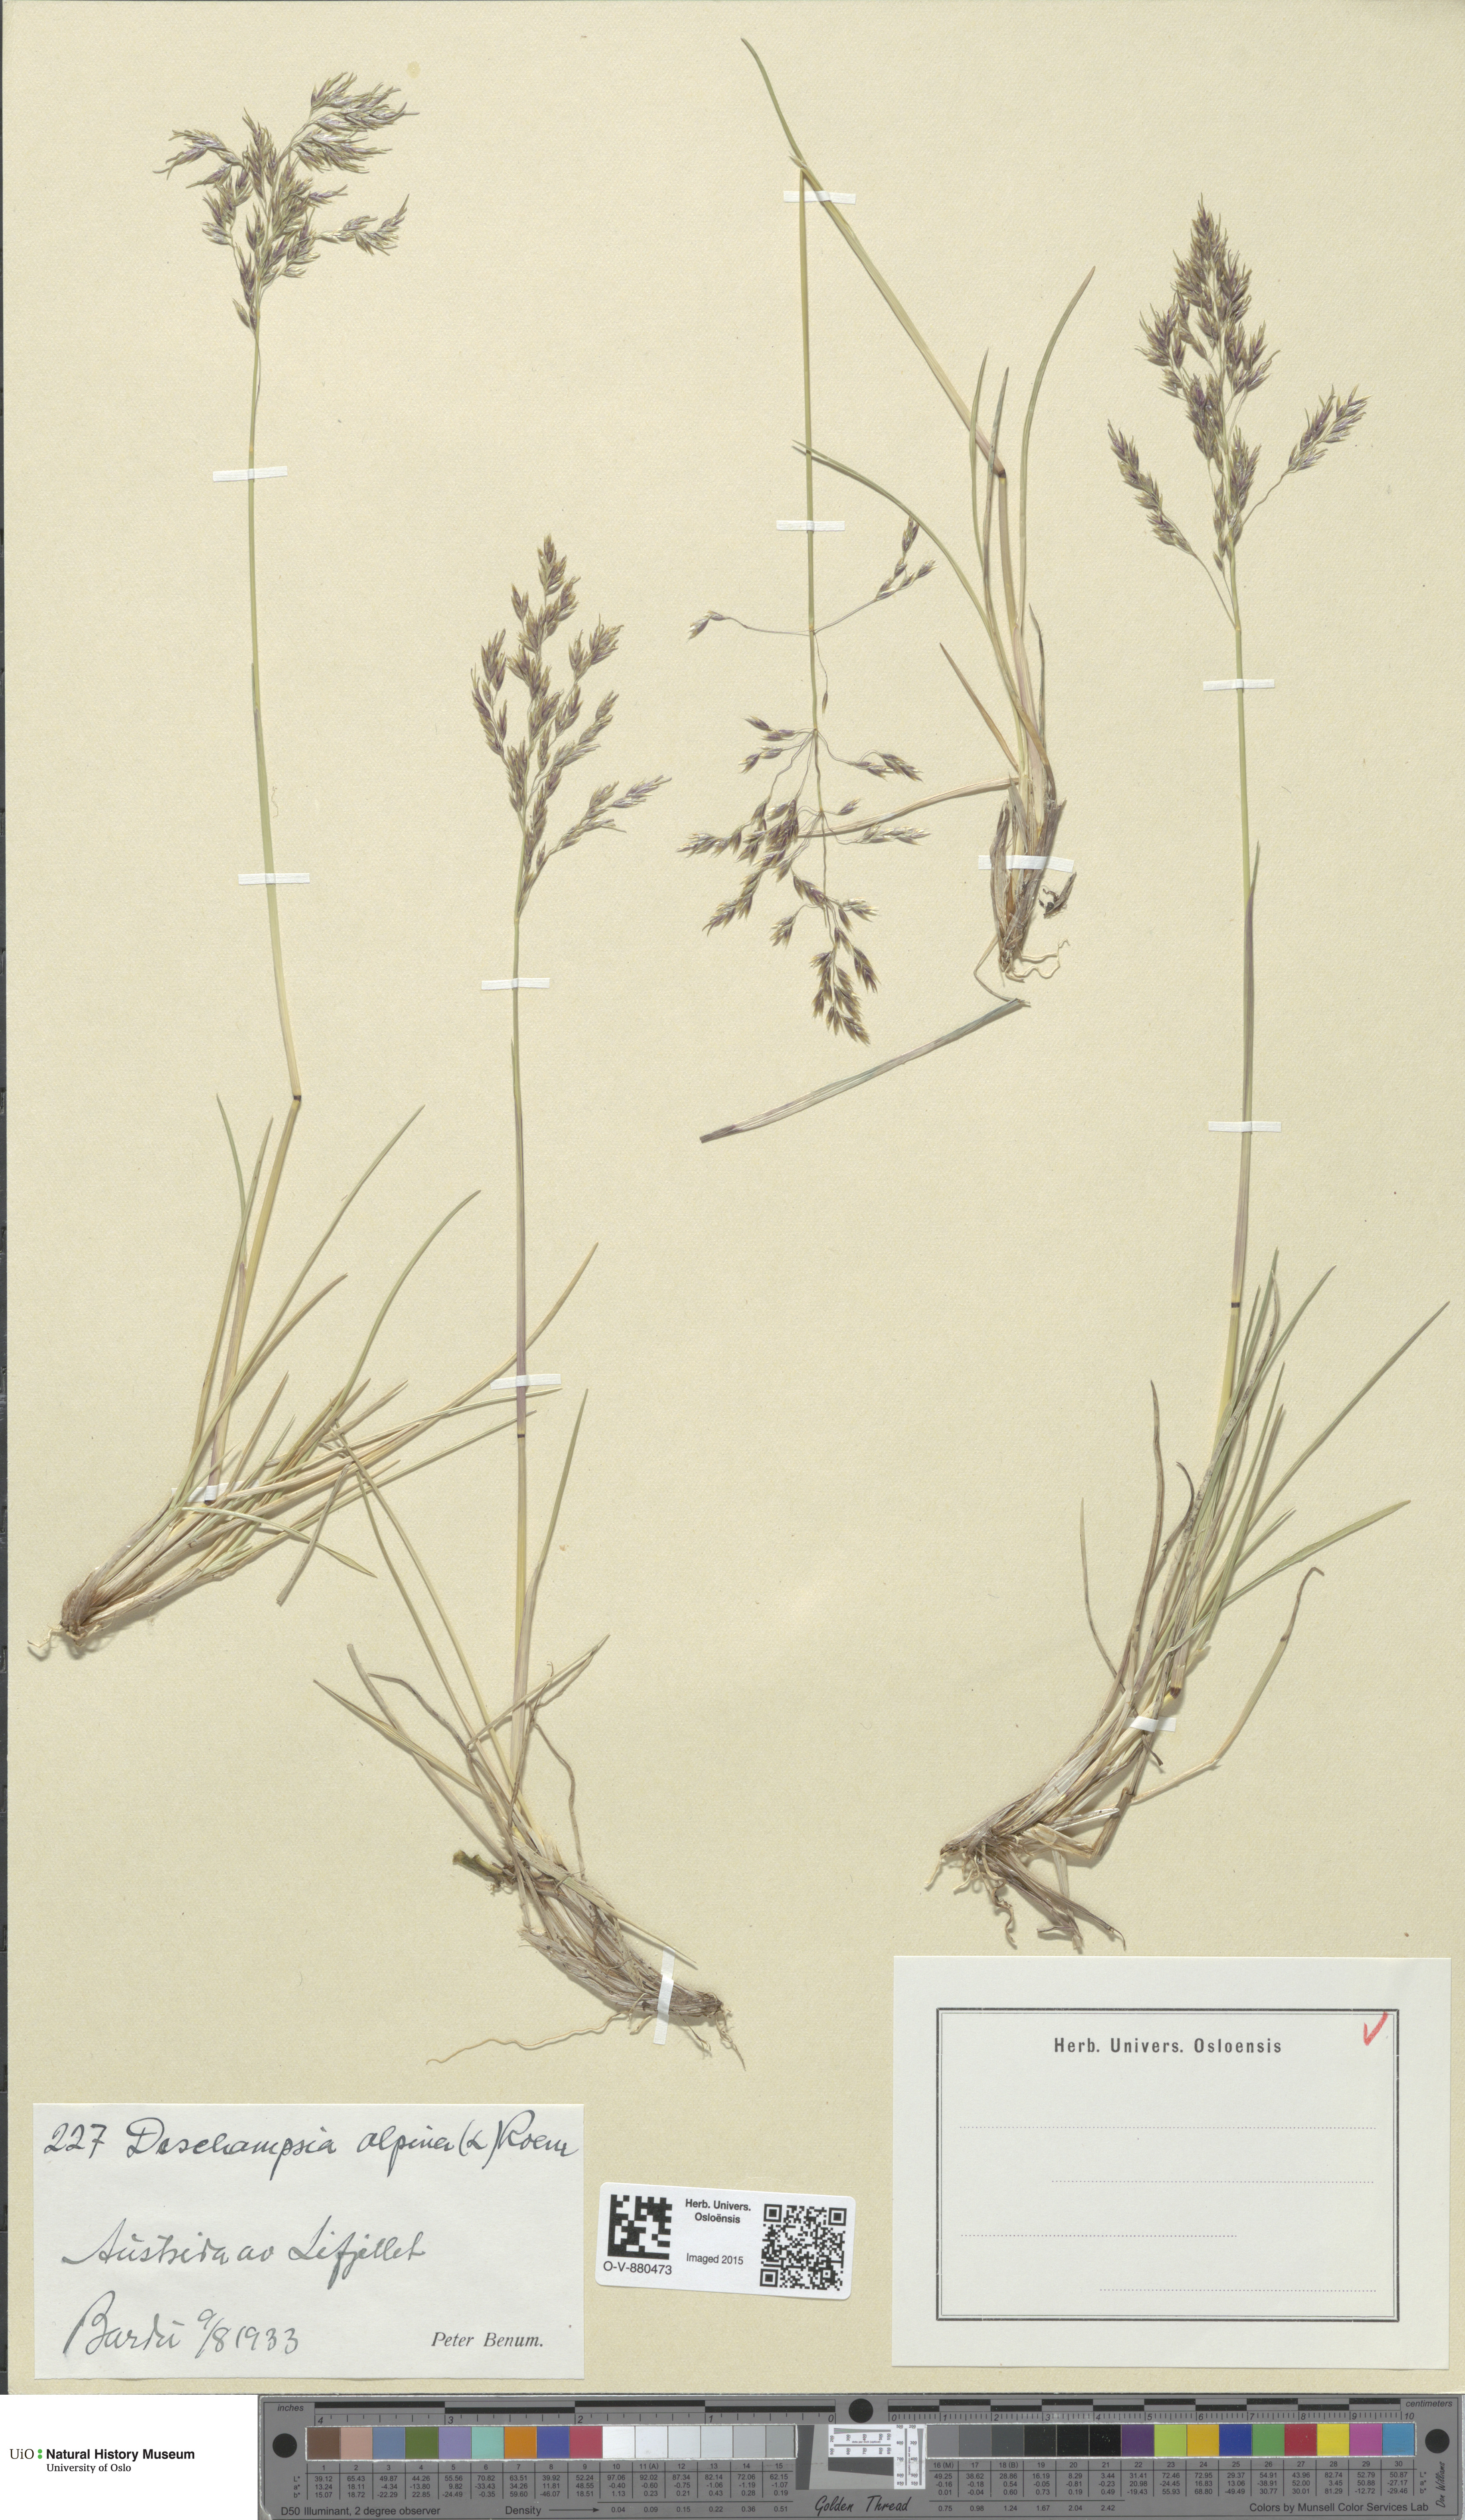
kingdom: Plantae
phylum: Tracheophyta
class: Liliopsida
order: Poales
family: Poaceae
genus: Deschampsia
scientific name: Deschampsia cespitosa
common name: Tufted hair-grass
